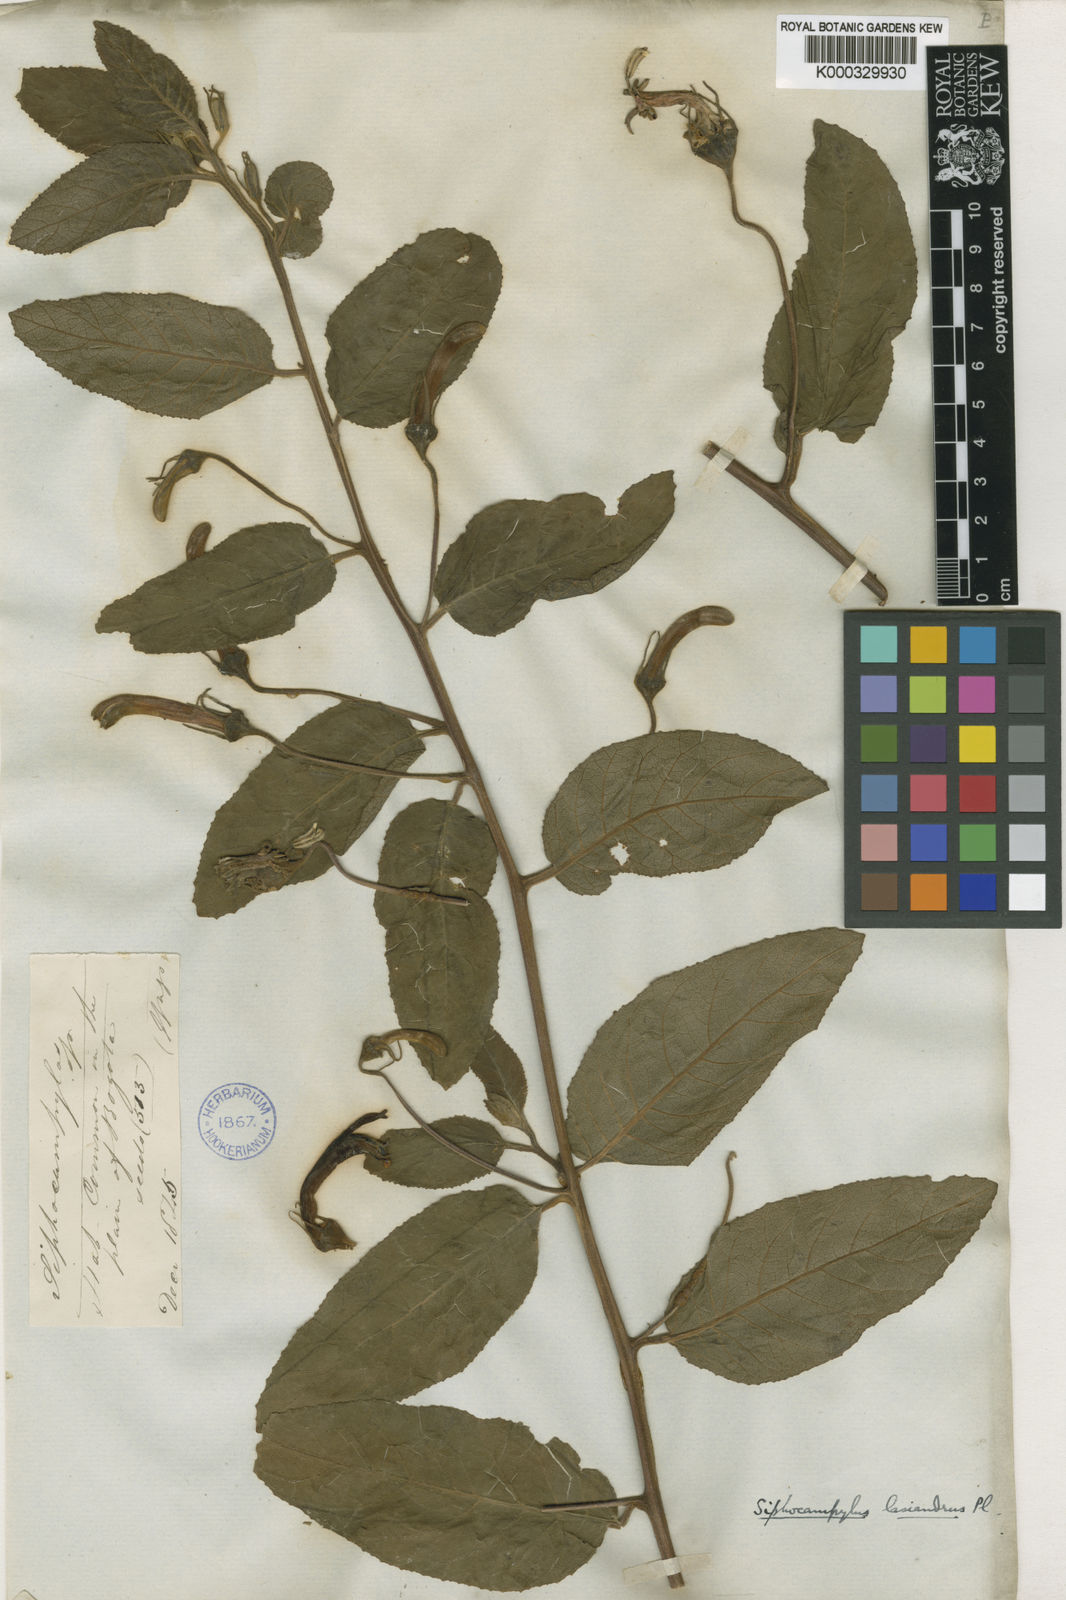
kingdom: Plantae
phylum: Tracheophyta
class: Magnoliopsida
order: Asterales
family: Campanulaceae
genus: Siphocampylus
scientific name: Siphocampylus lasiandrus
